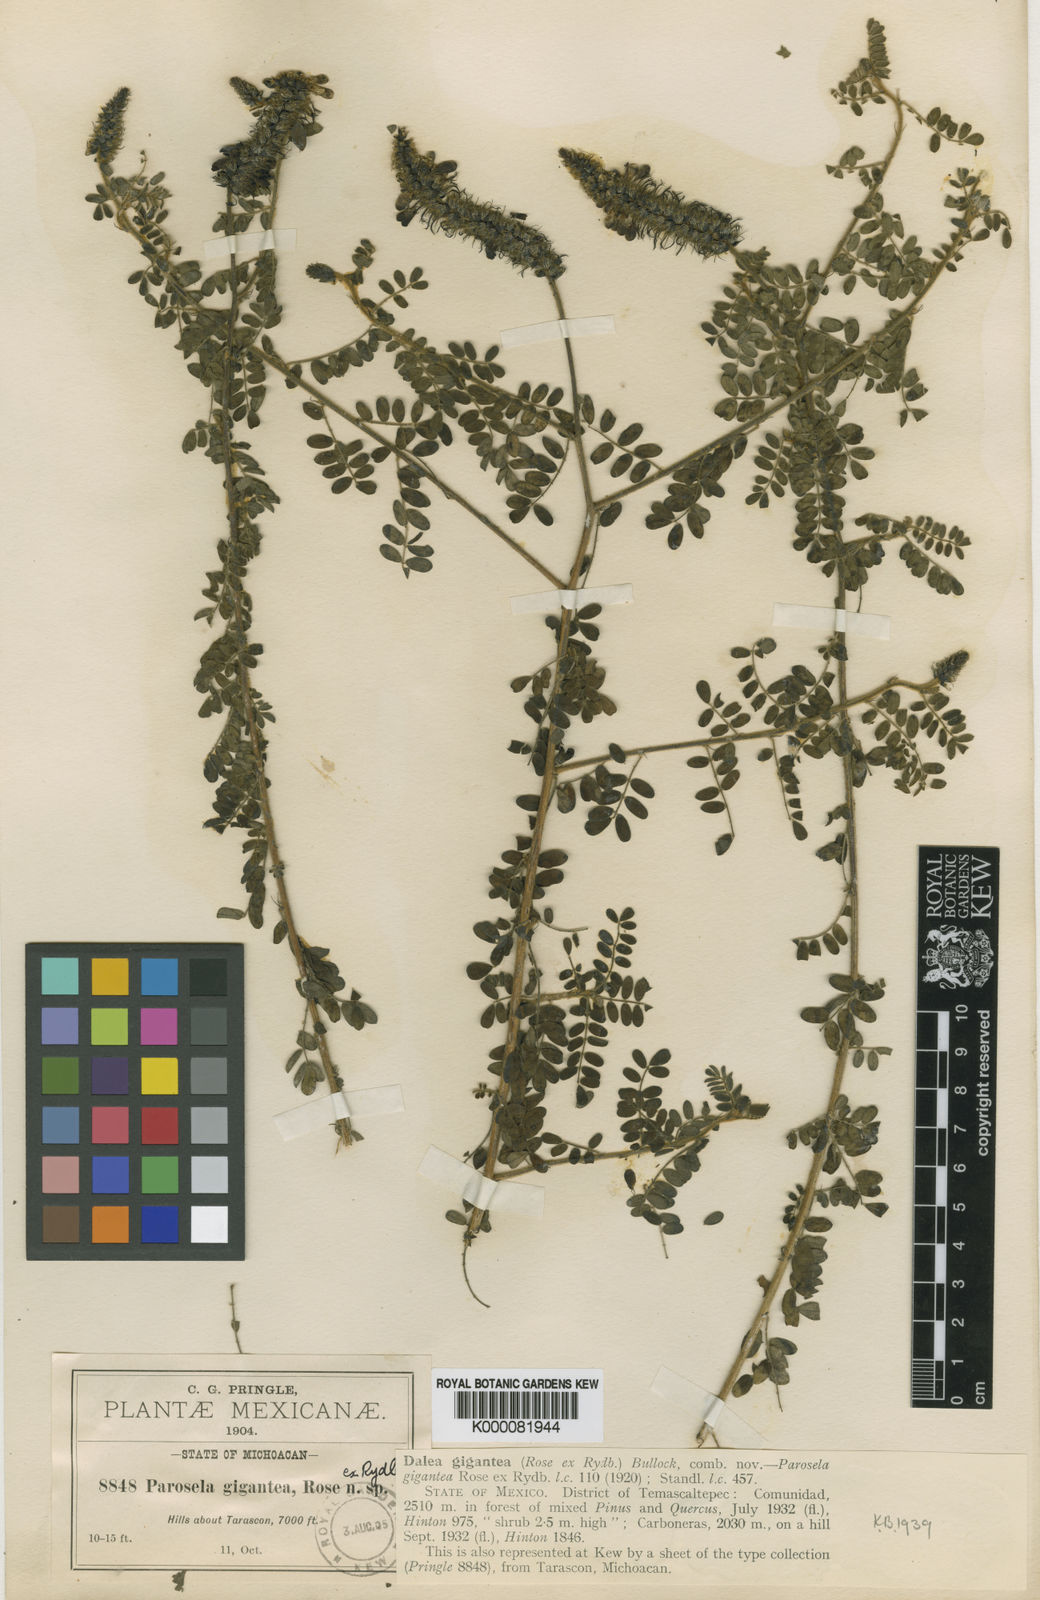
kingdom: Plantae
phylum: Tracheophyta
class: Magnoliopsida
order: Fabales
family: Fabaceae
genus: Dalea
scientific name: Dalea lutea
